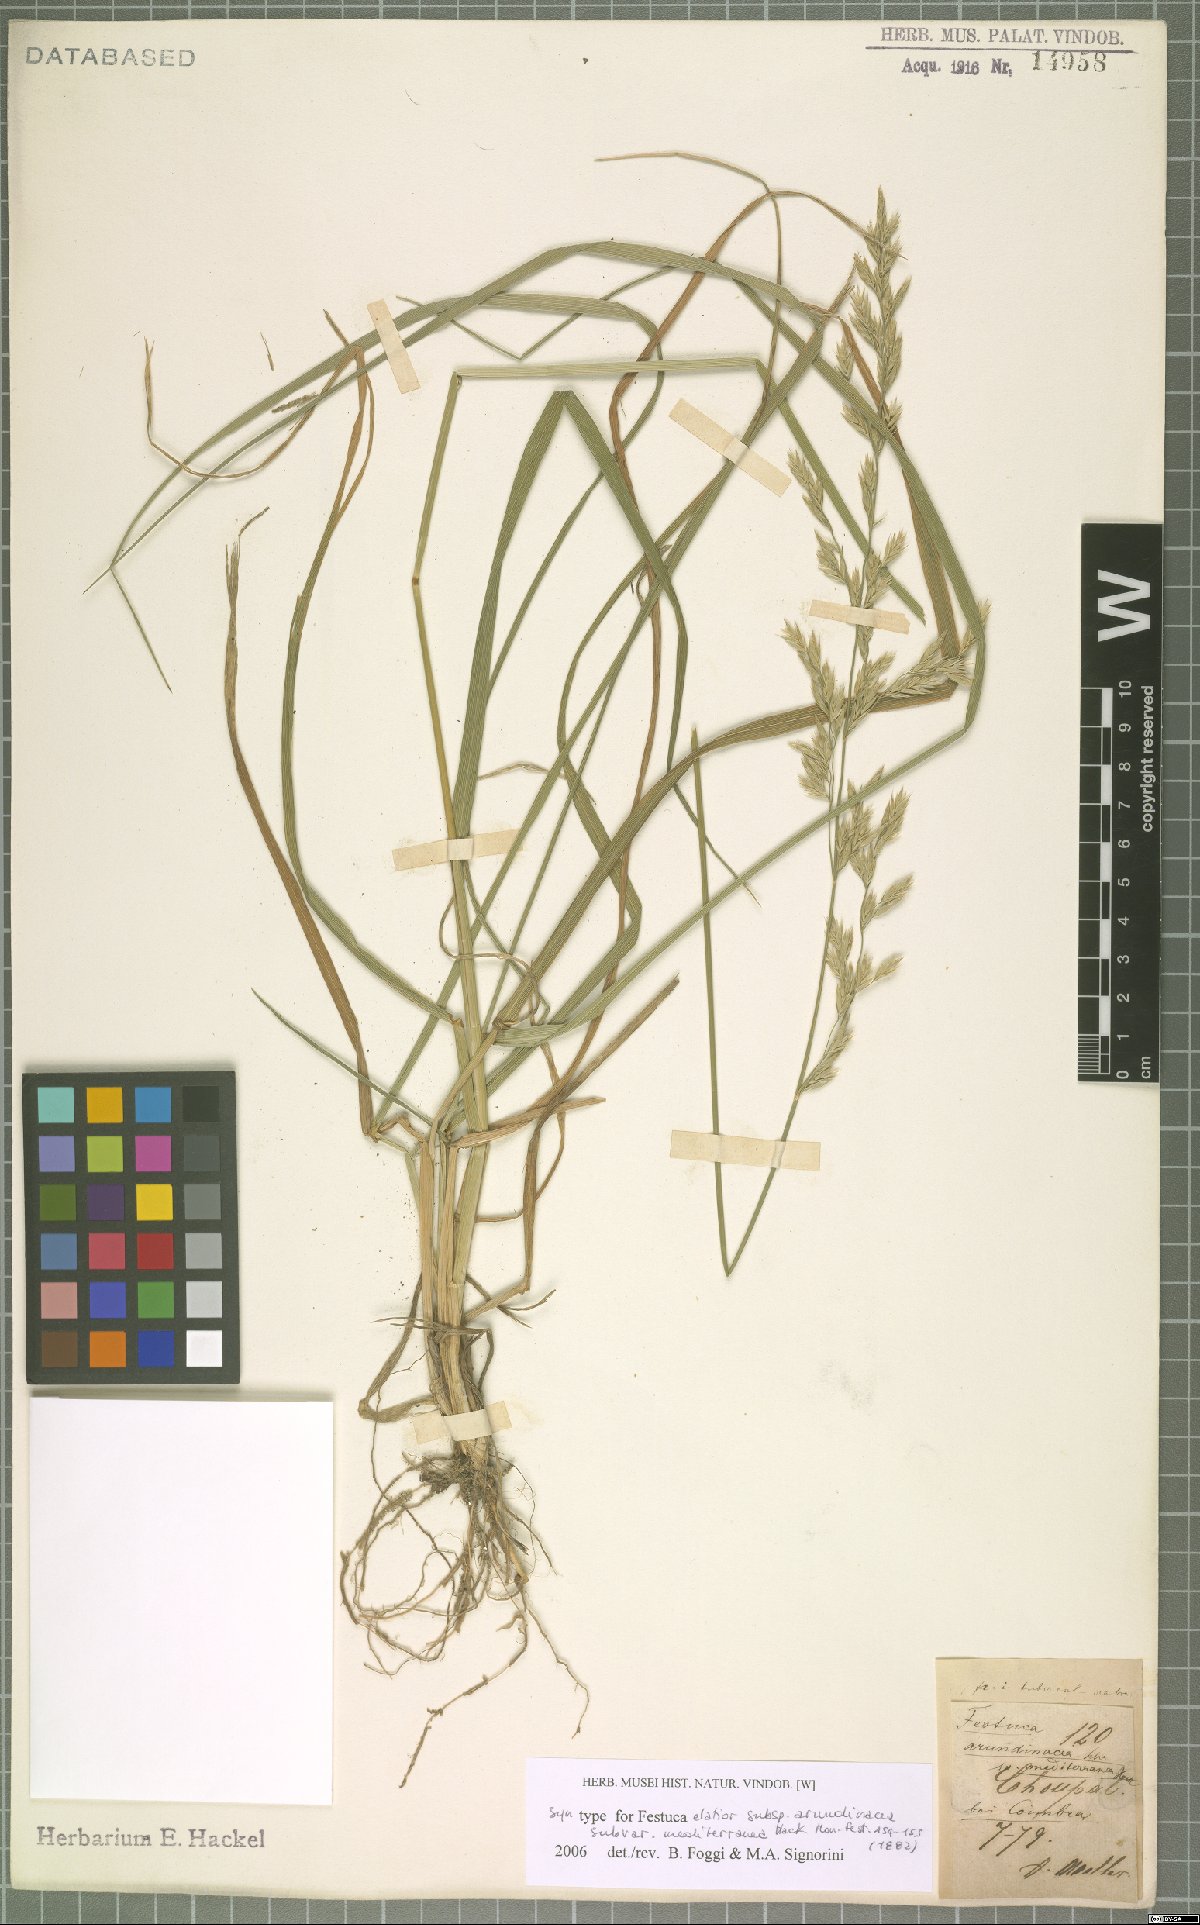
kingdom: Plantae
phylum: Tracheophyta
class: Liliopsida
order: Poales
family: Poaceae
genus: Lolium
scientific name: Lolium mediterraneum
